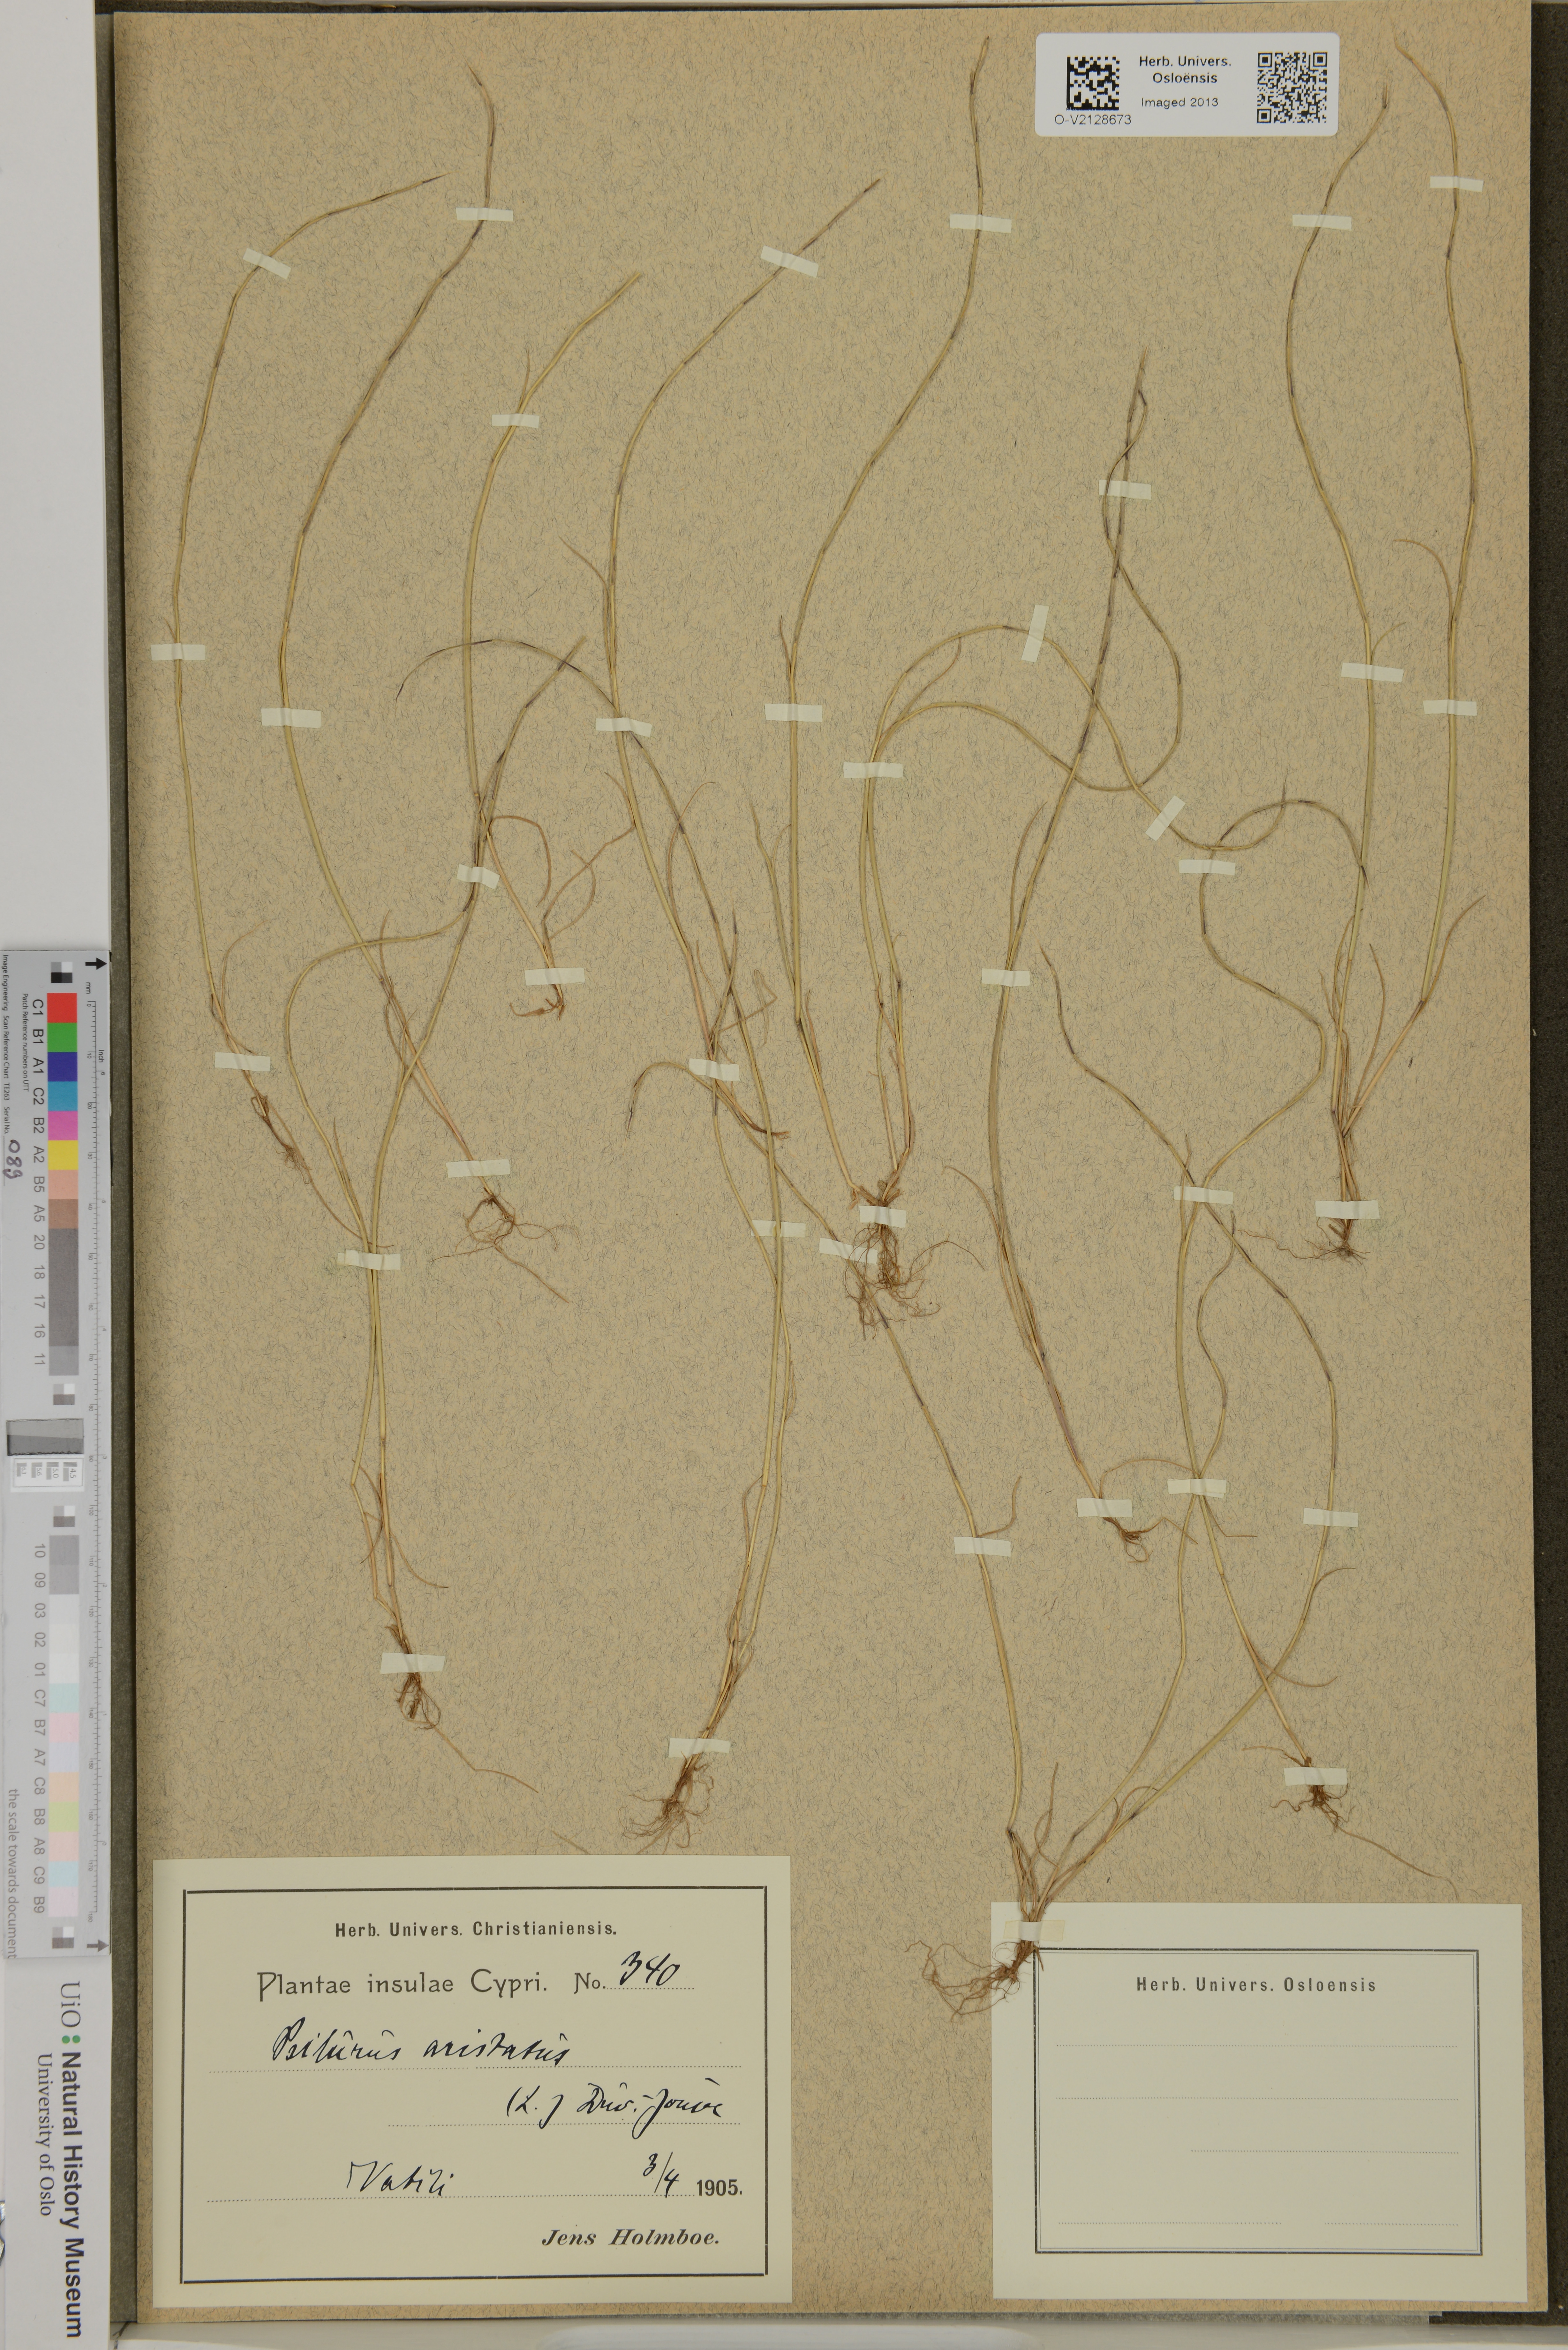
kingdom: Plantae
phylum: Tracheophyta
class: Liliopsida
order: Poales
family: Poaceae
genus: Festuca
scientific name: Festuca incurva
